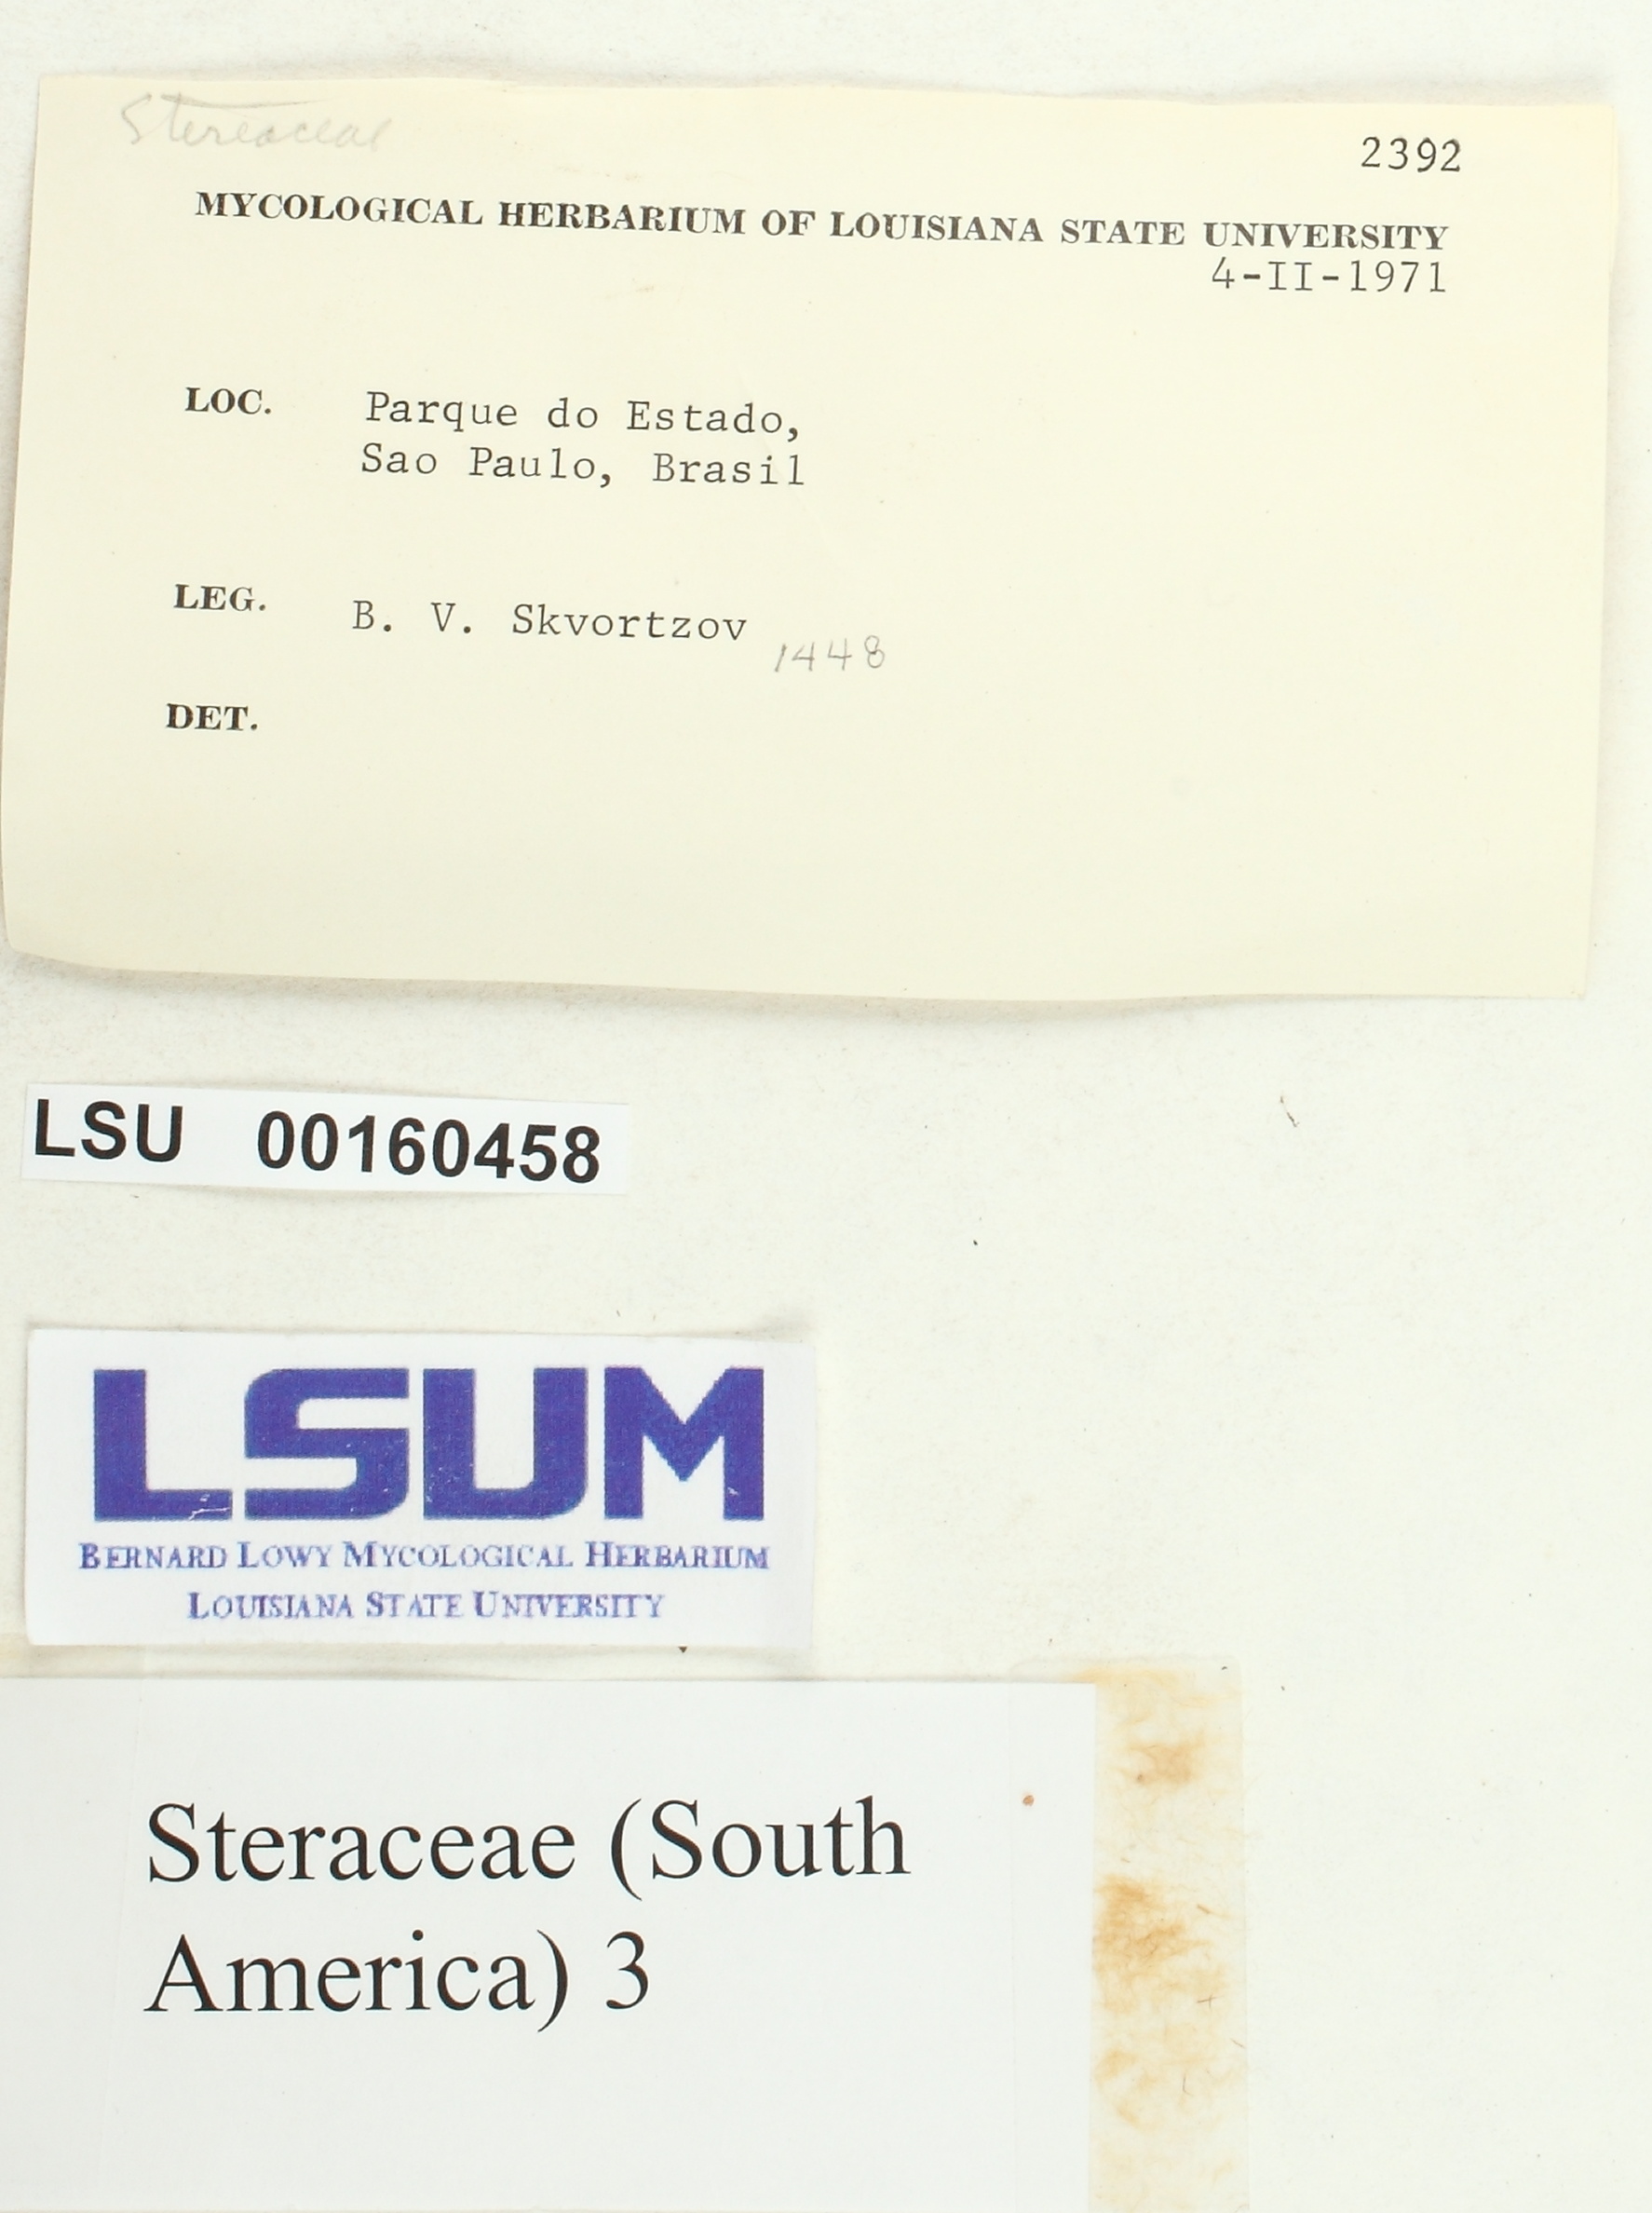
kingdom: Fungi
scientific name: Fungi
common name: Fungi
